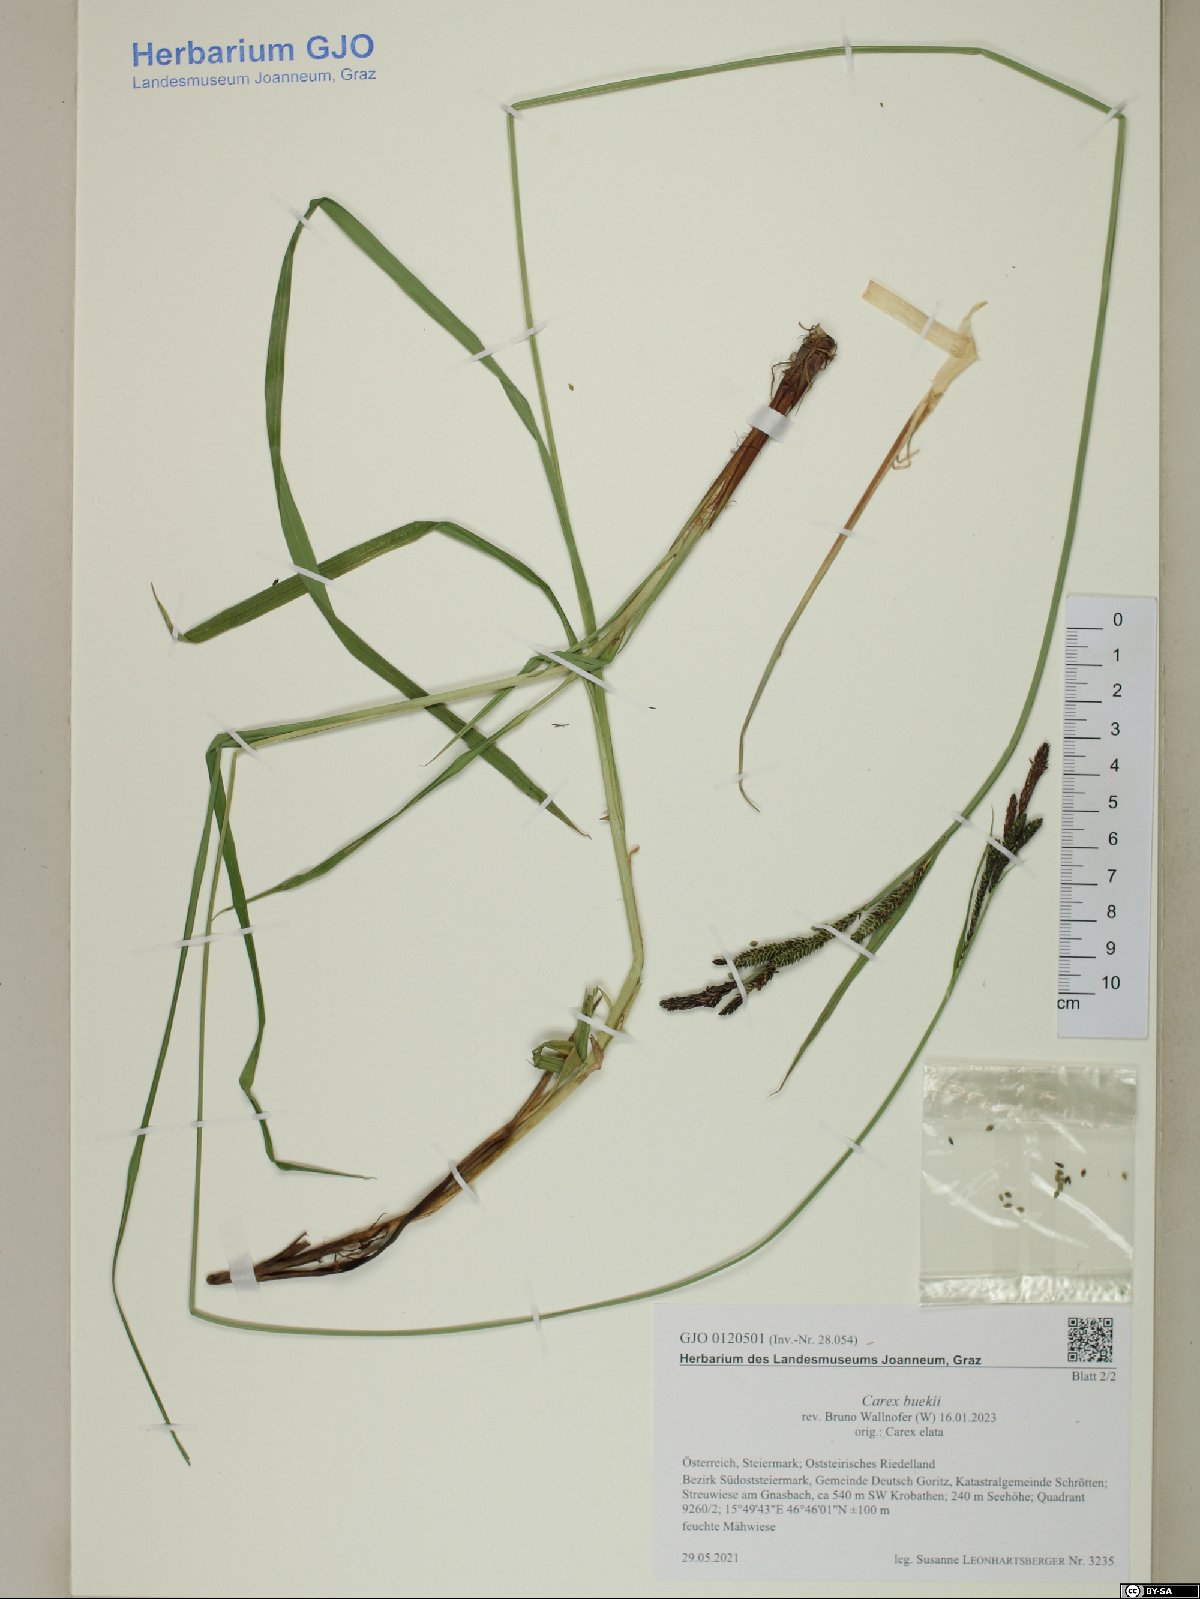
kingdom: Plantae
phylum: Tracheophyta
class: Liliopsida
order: Poales
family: Cyperaceae
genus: Carex
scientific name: Carex buekii
